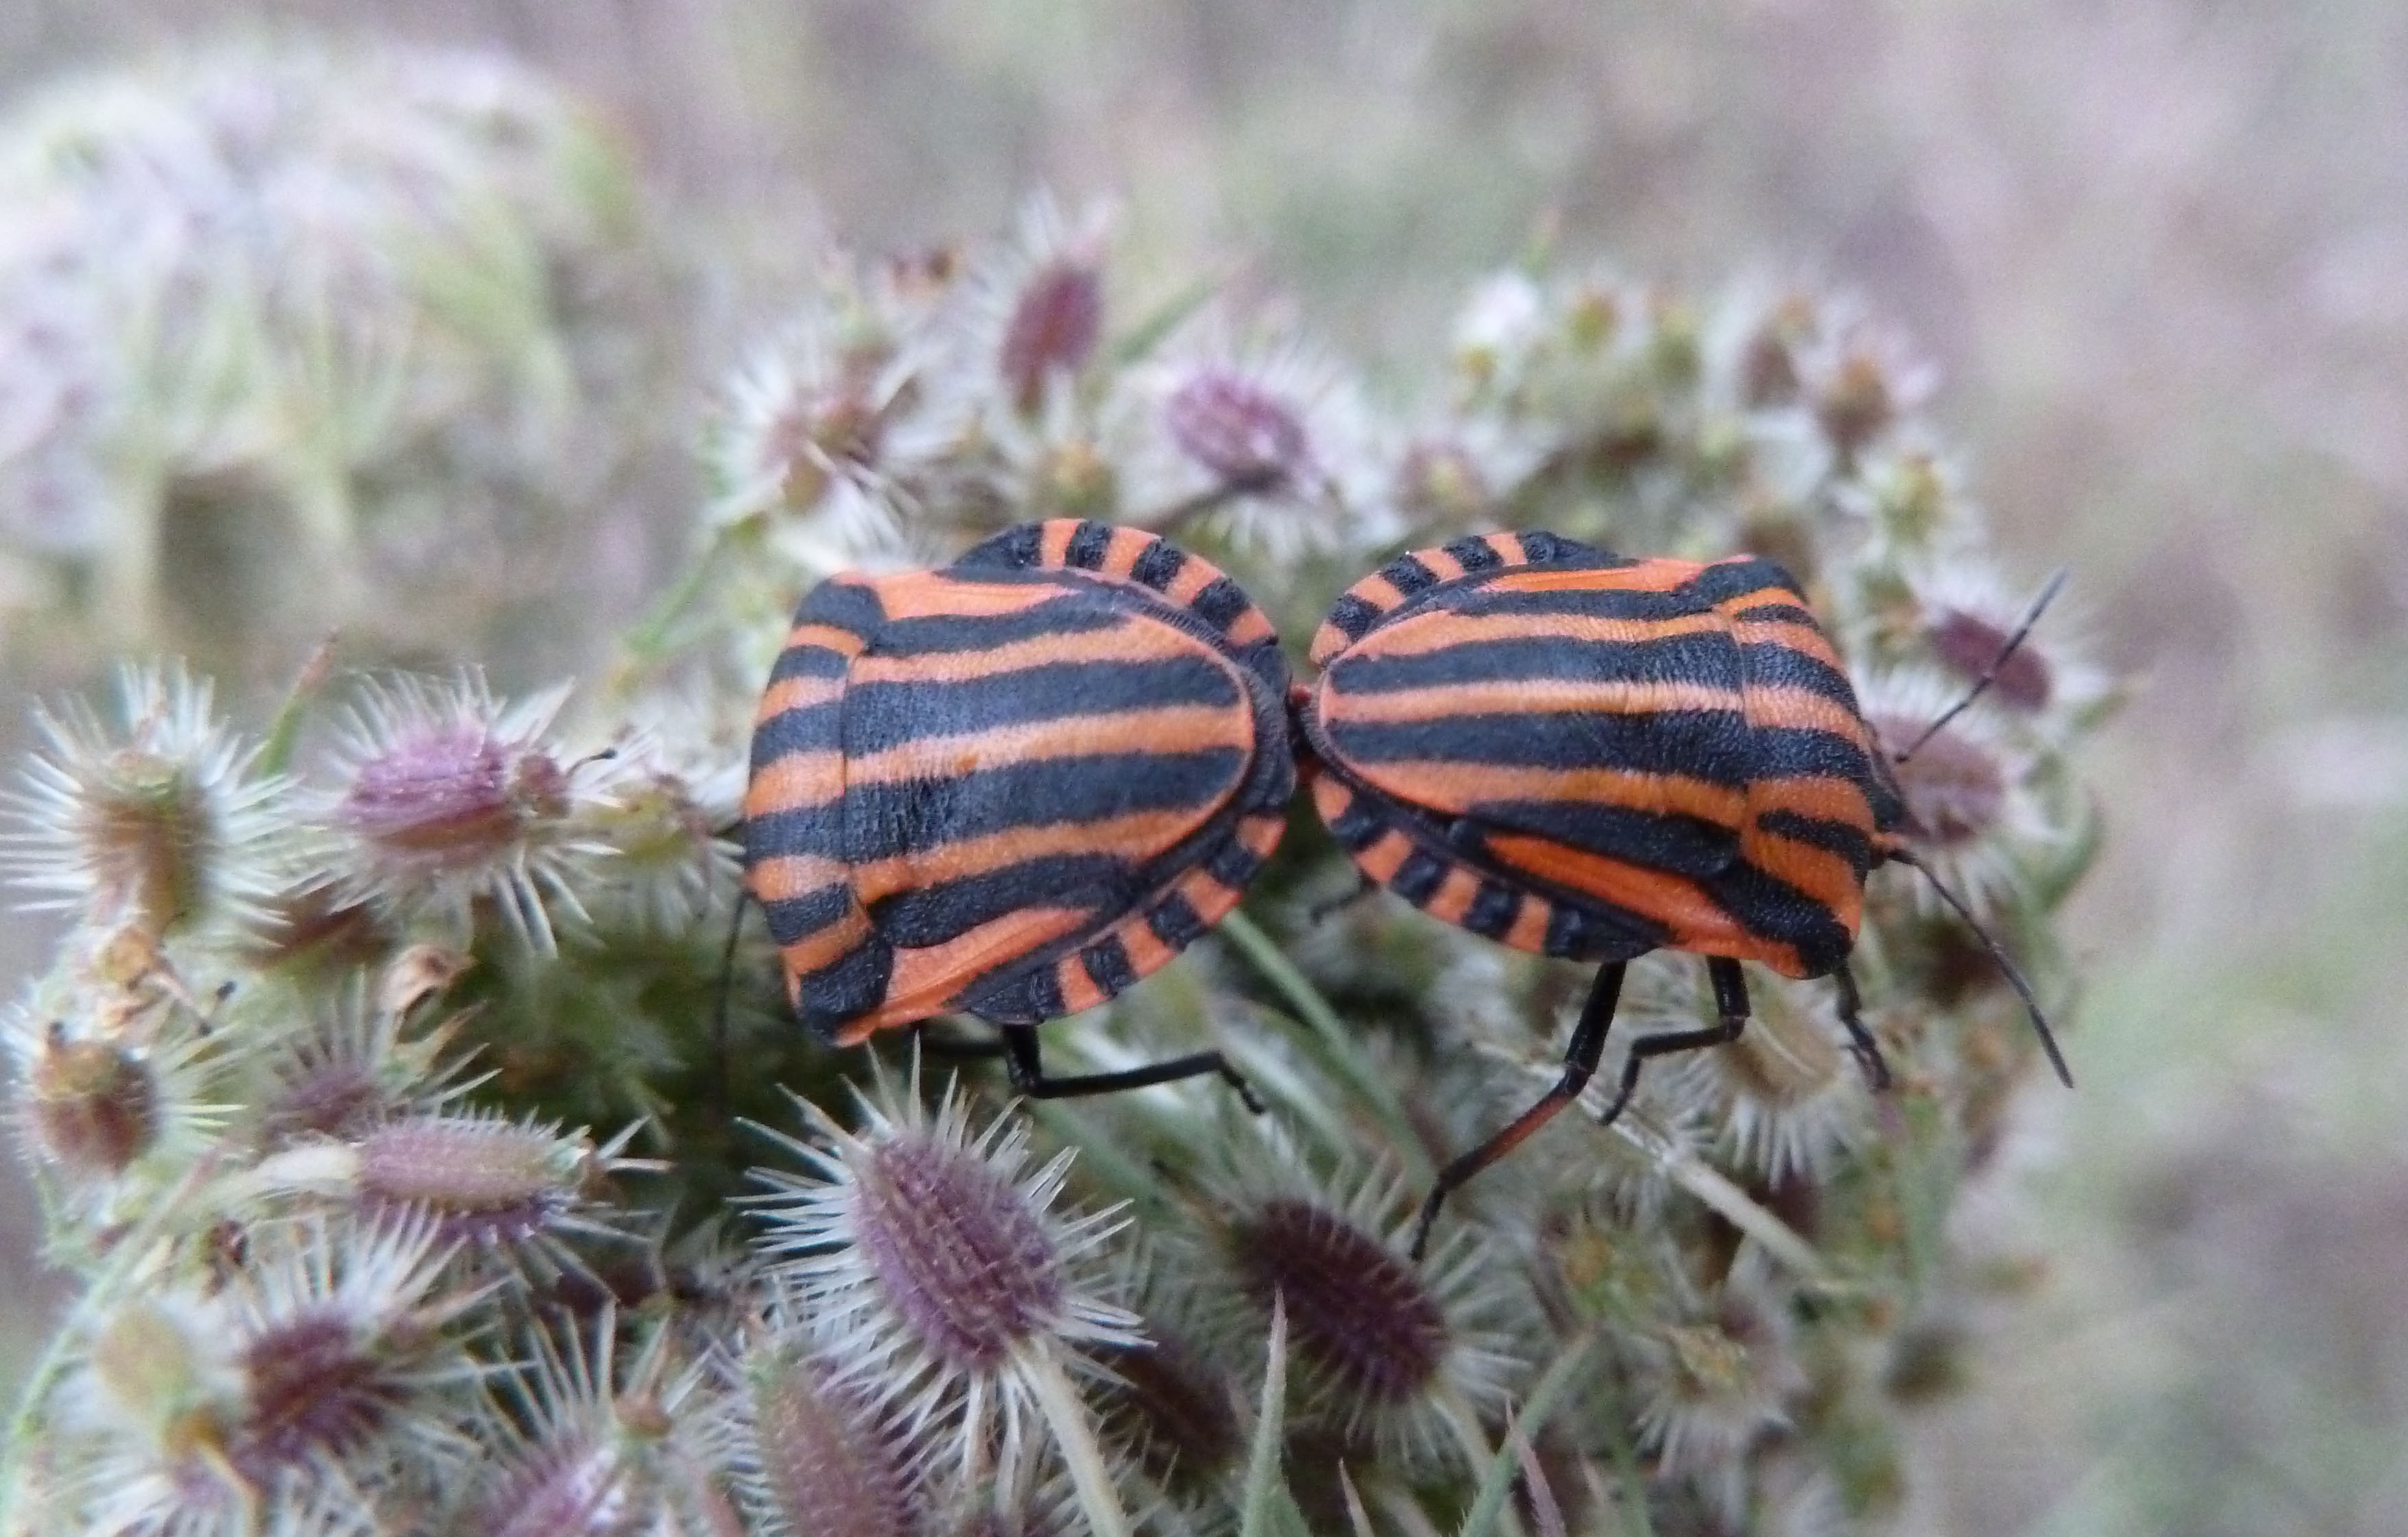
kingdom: Animalia
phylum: Arthropoda
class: Insecta
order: Hemiptera
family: Pentatomidae
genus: Graphosoma
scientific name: Graphosoma lineatum
